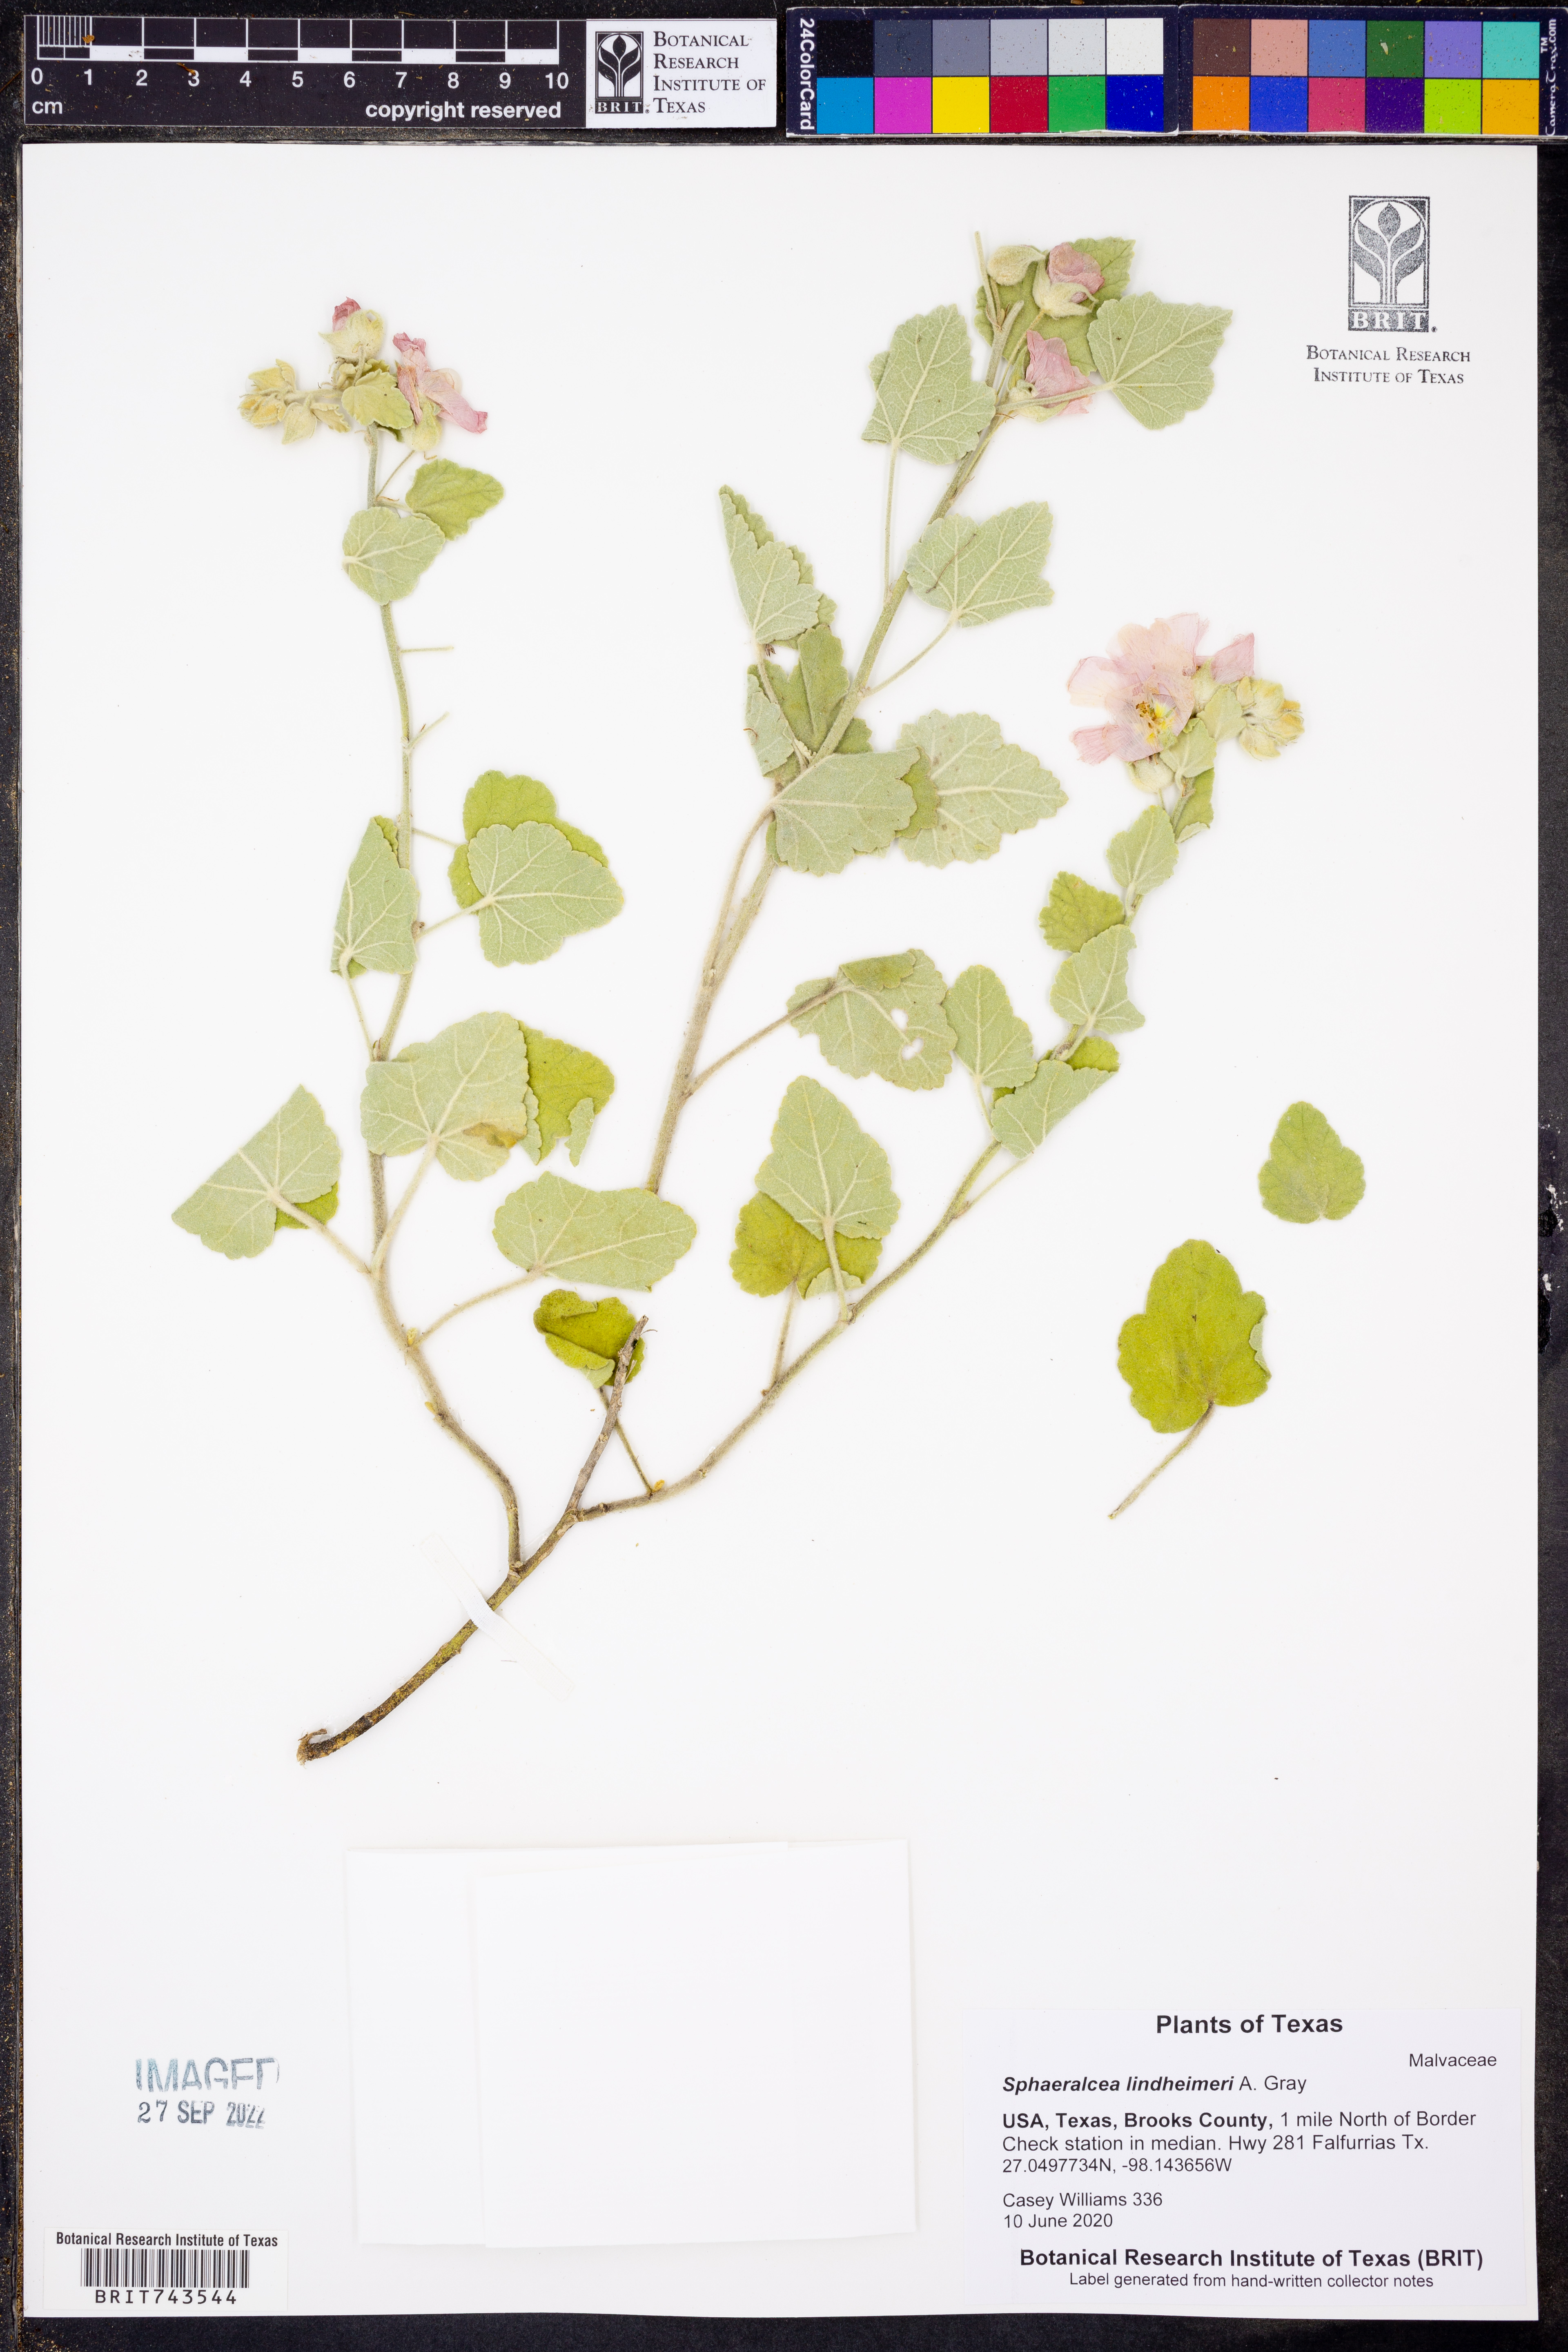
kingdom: Plantae
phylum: Tracheophyta
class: Magnoliopsida
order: Malvales
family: Malvaceae
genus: Sphaeralcea
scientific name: Sphaeralcea lindheimeri
